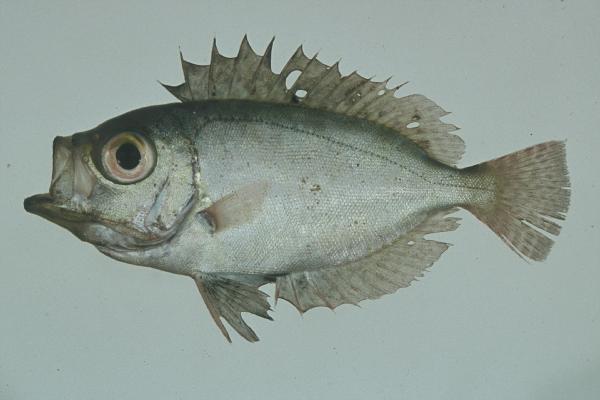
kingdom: Animalia
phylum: Chordata
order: Perciformes
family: Priacanthidae
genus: Heteropriacanthus
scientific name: Heteropriacanthus cruentatus
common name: Glasseye
